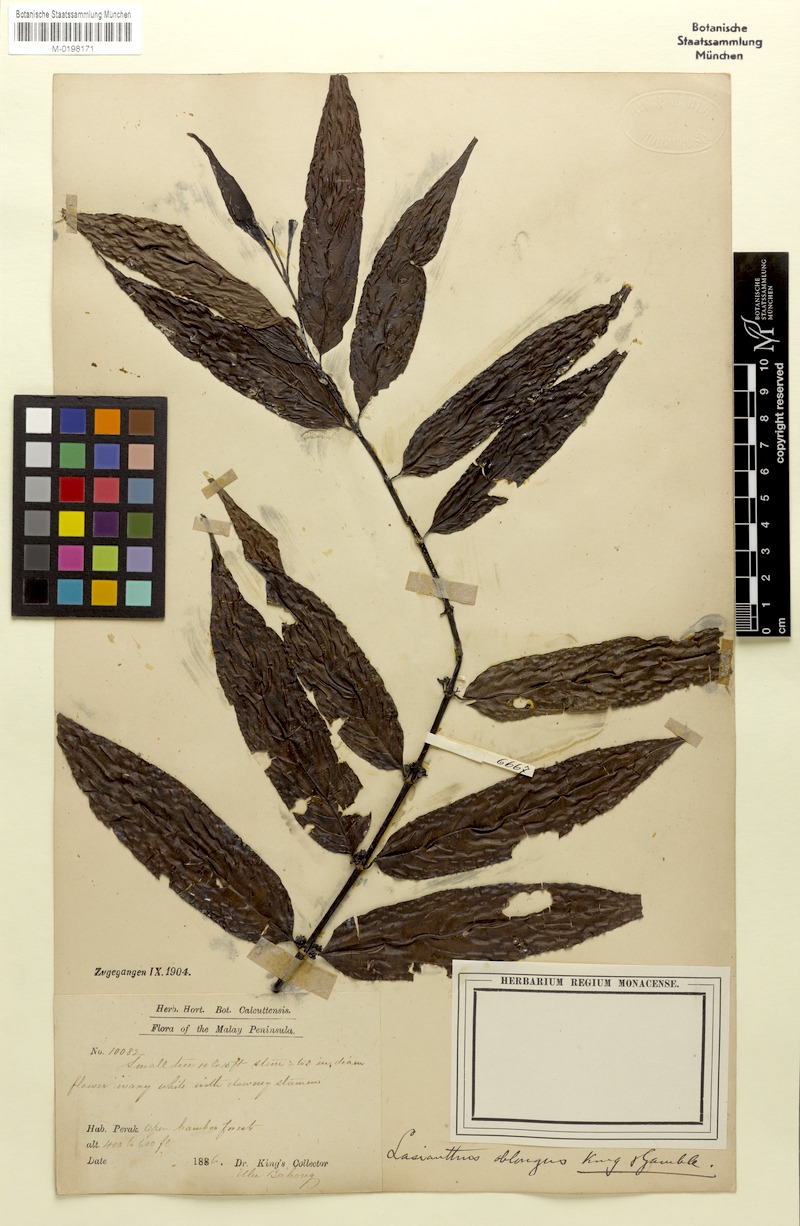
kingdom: Plantae
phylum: Tracheophyta
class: Magnoliopsida
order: Gentianales
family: Rubiaceae
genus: Lasianthus
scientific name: Lasianthus oblongus
